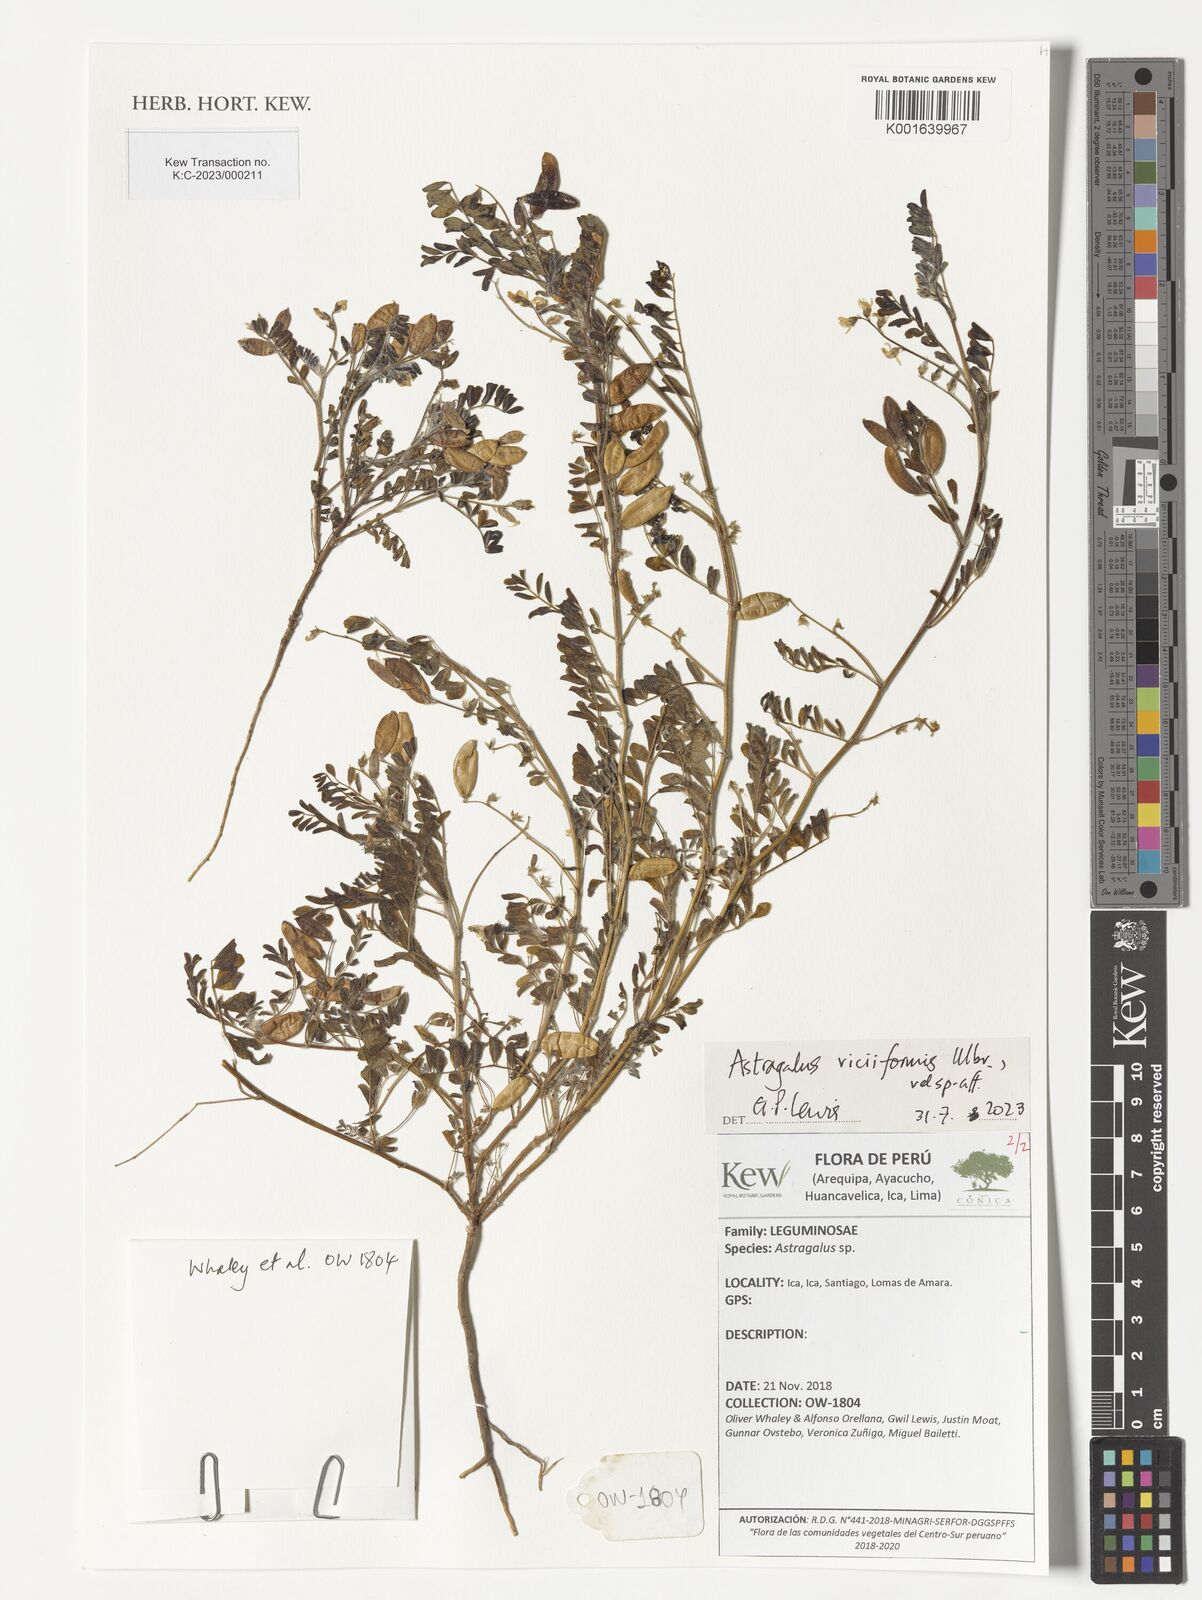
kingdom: Plantae
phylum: Tracheophyta
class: Magnoliopsida
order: Fabales
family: Fabaceae
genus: Astragalus
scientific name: Astragalus triflorus
